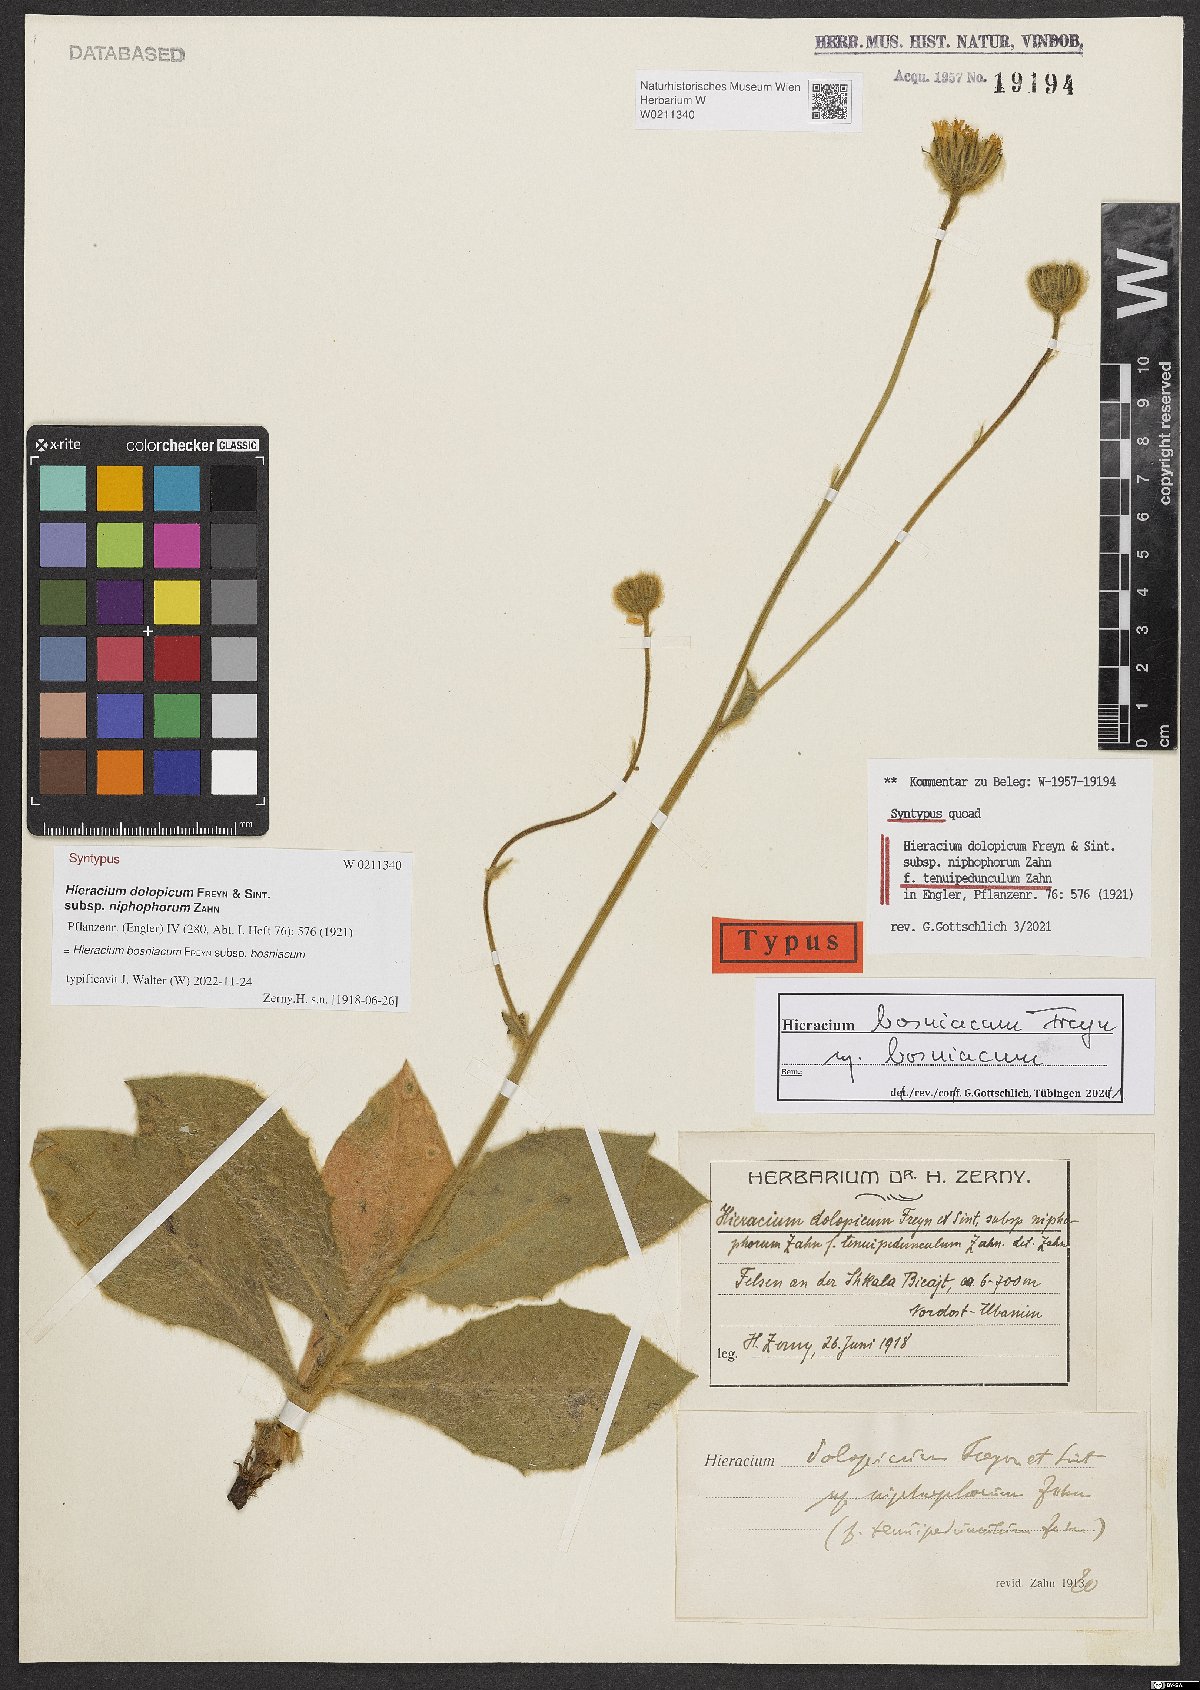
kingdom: Plantae
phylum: Tracheophyta
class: Magnoliopsida
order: Asterales
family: Asteraceae
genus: Hieracium
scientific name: Hieracium bosniacum
